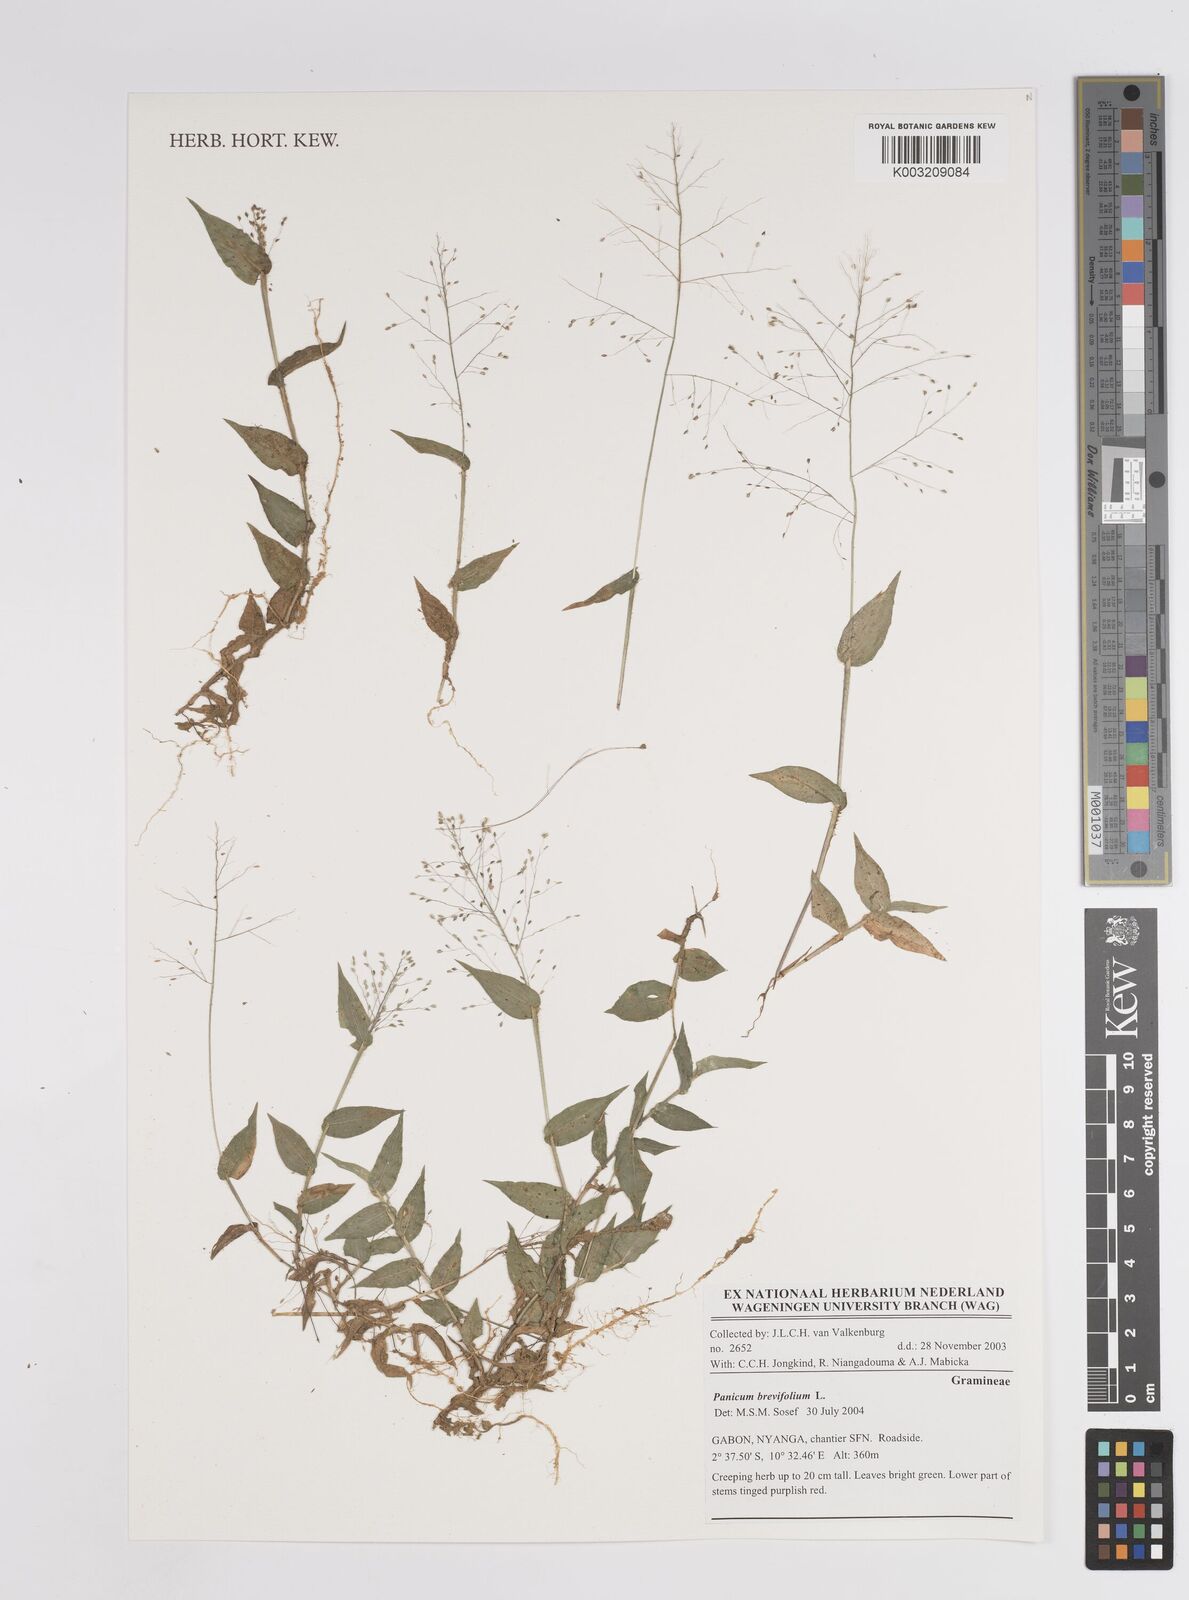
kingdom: Plantae
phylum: Tracheophyta
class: Liliopsida
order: Poales
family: Poaceae
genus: Panicum
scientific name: Panicum brevifolium
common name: Shortleaf panic grass
